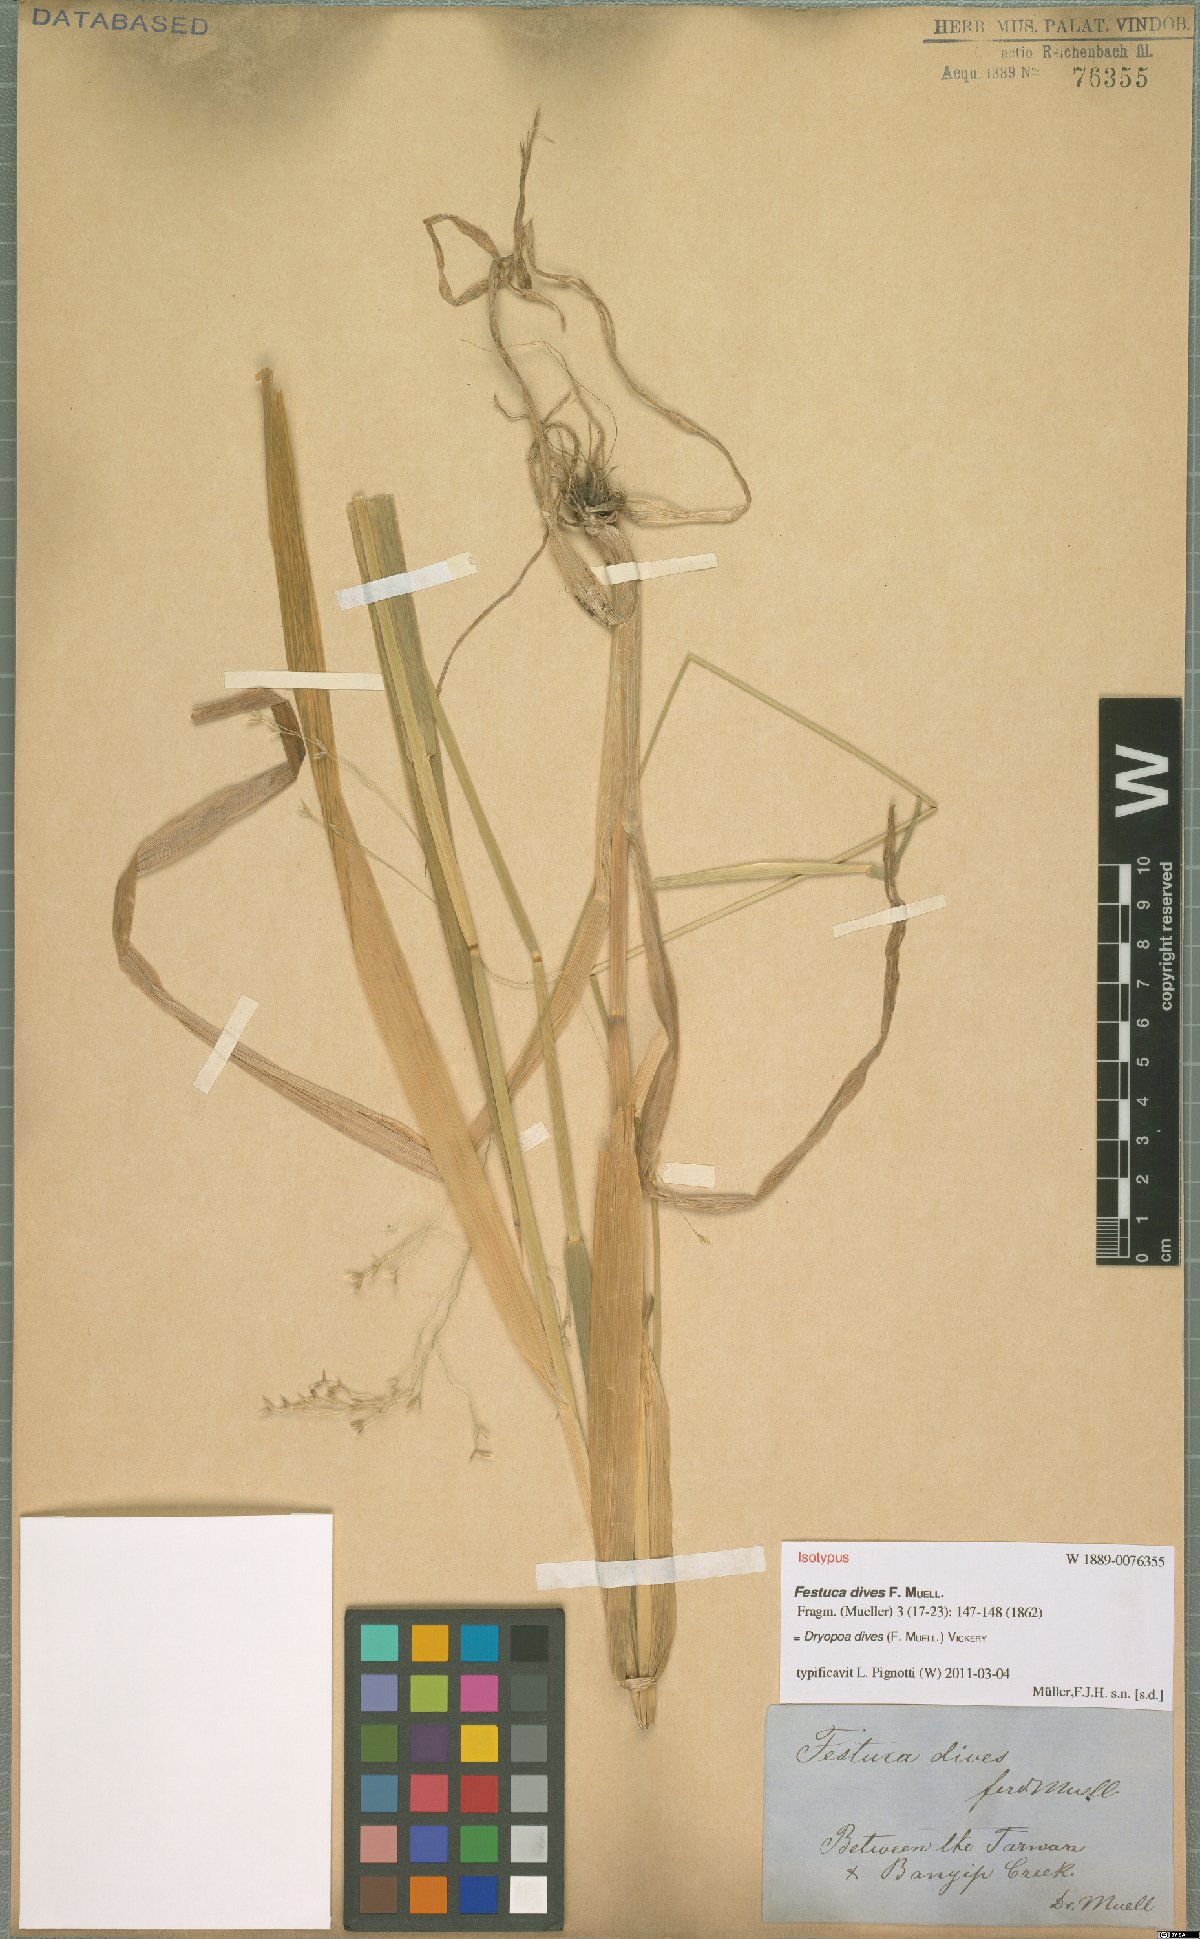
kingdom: Plantae
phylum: Tracheophyta
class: Liliopsida
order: Poales
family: Poaceae
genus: Dryopoa
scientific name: Dryopoa dives
